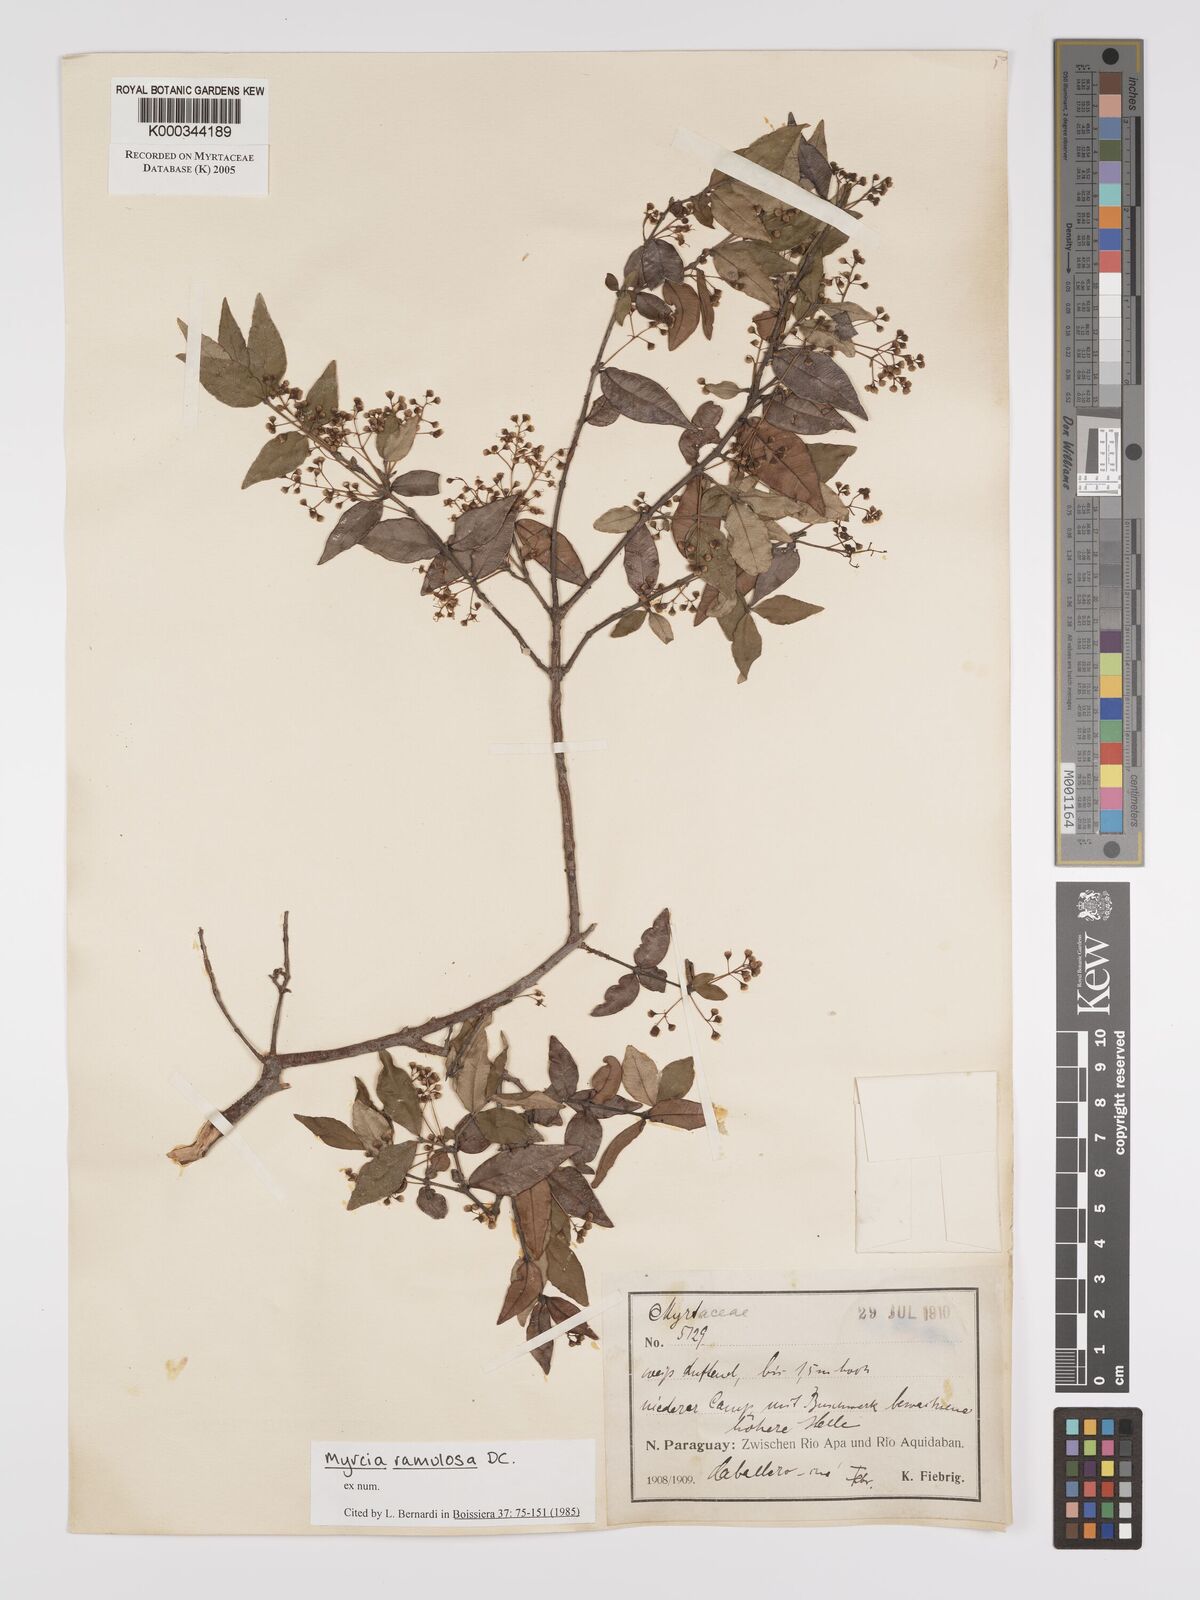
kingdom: Plantae
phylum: Tracheophyta
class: Magnoliopsida
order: Myrtales
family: Myrtaceae
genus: Myrcia
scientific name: Myrcia selloi
